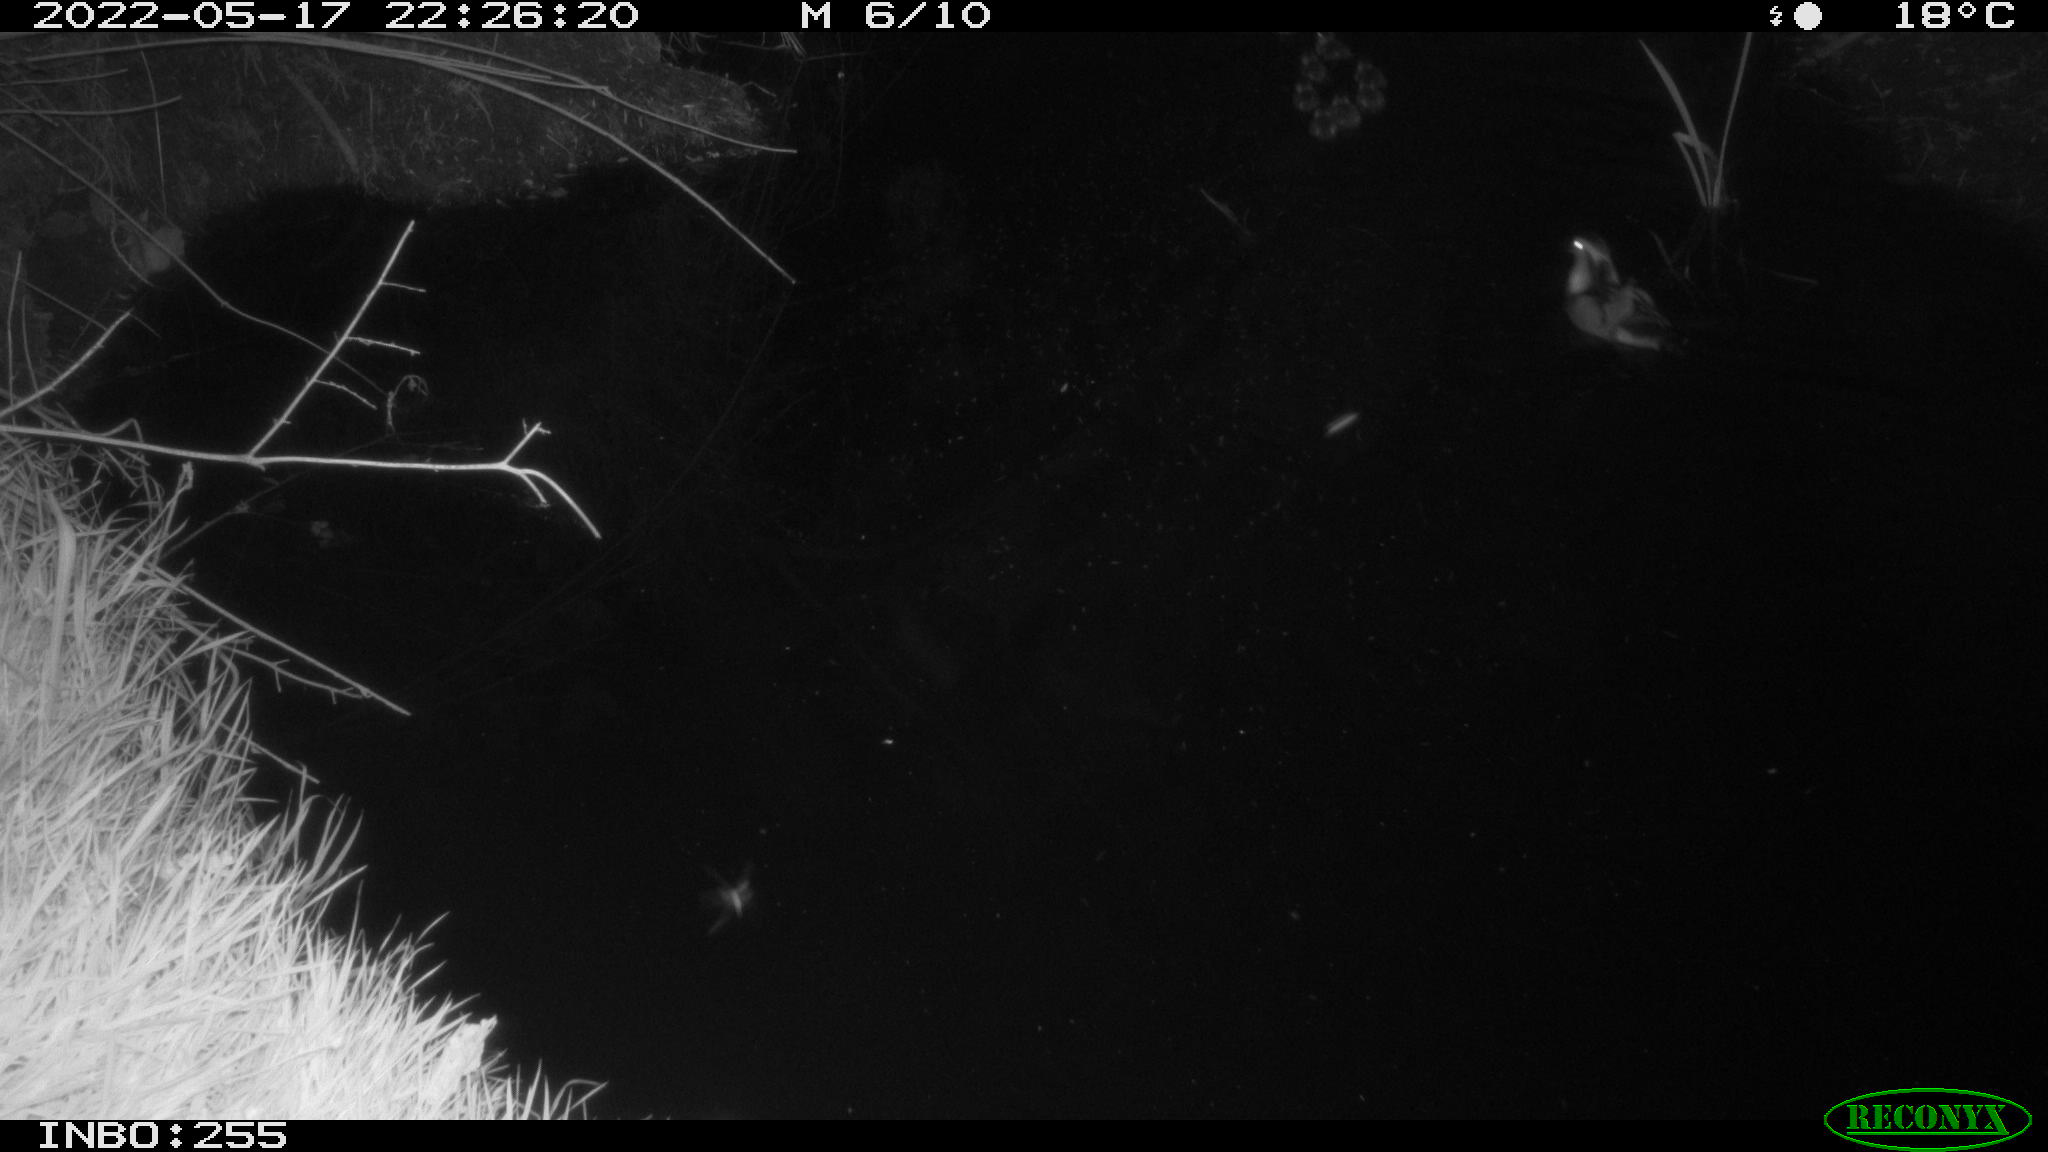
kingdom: Animalia
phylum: Chordata
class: Aves
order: Anseriformes
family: Anatidae
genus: Anas
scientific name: Anas platyrhynchos
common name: Mallard
